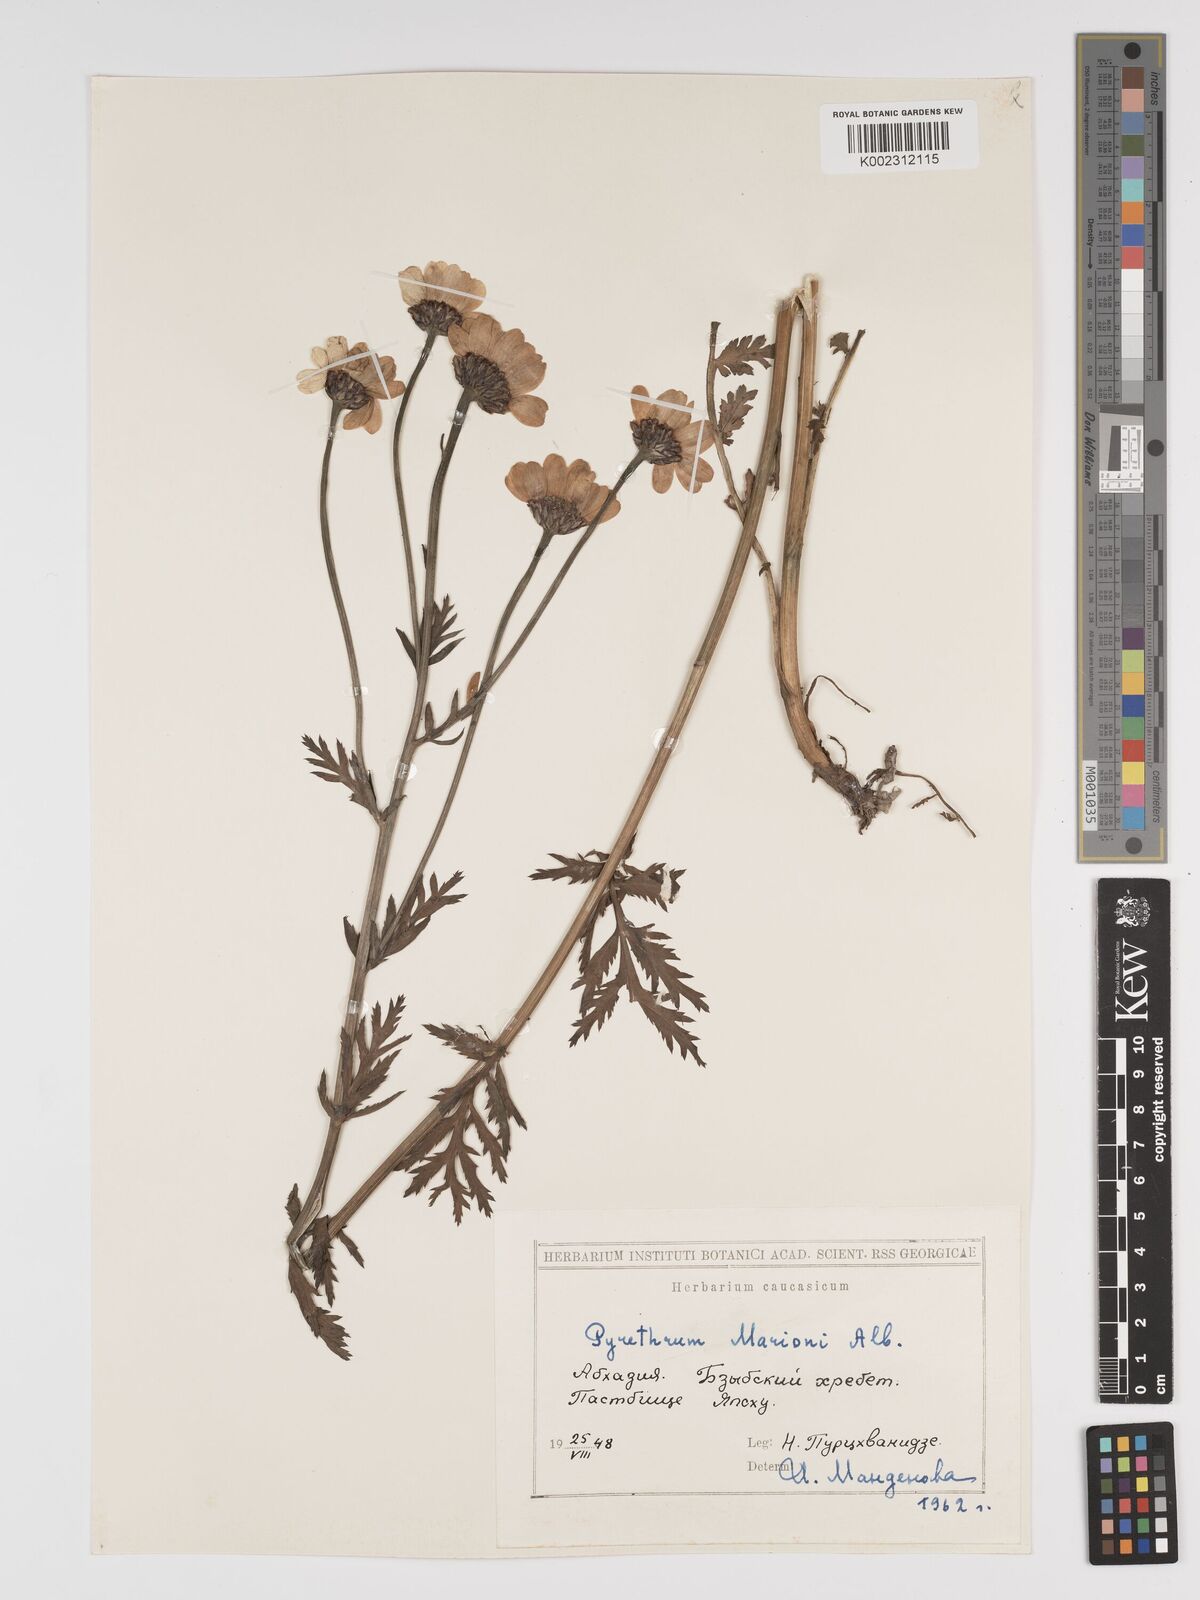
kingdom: Plantae
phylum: Tracheophyta
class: Magnoliopsida
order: Asterales
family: Asteraceae
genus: Tanacetum
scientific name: Tanacetum marionii
